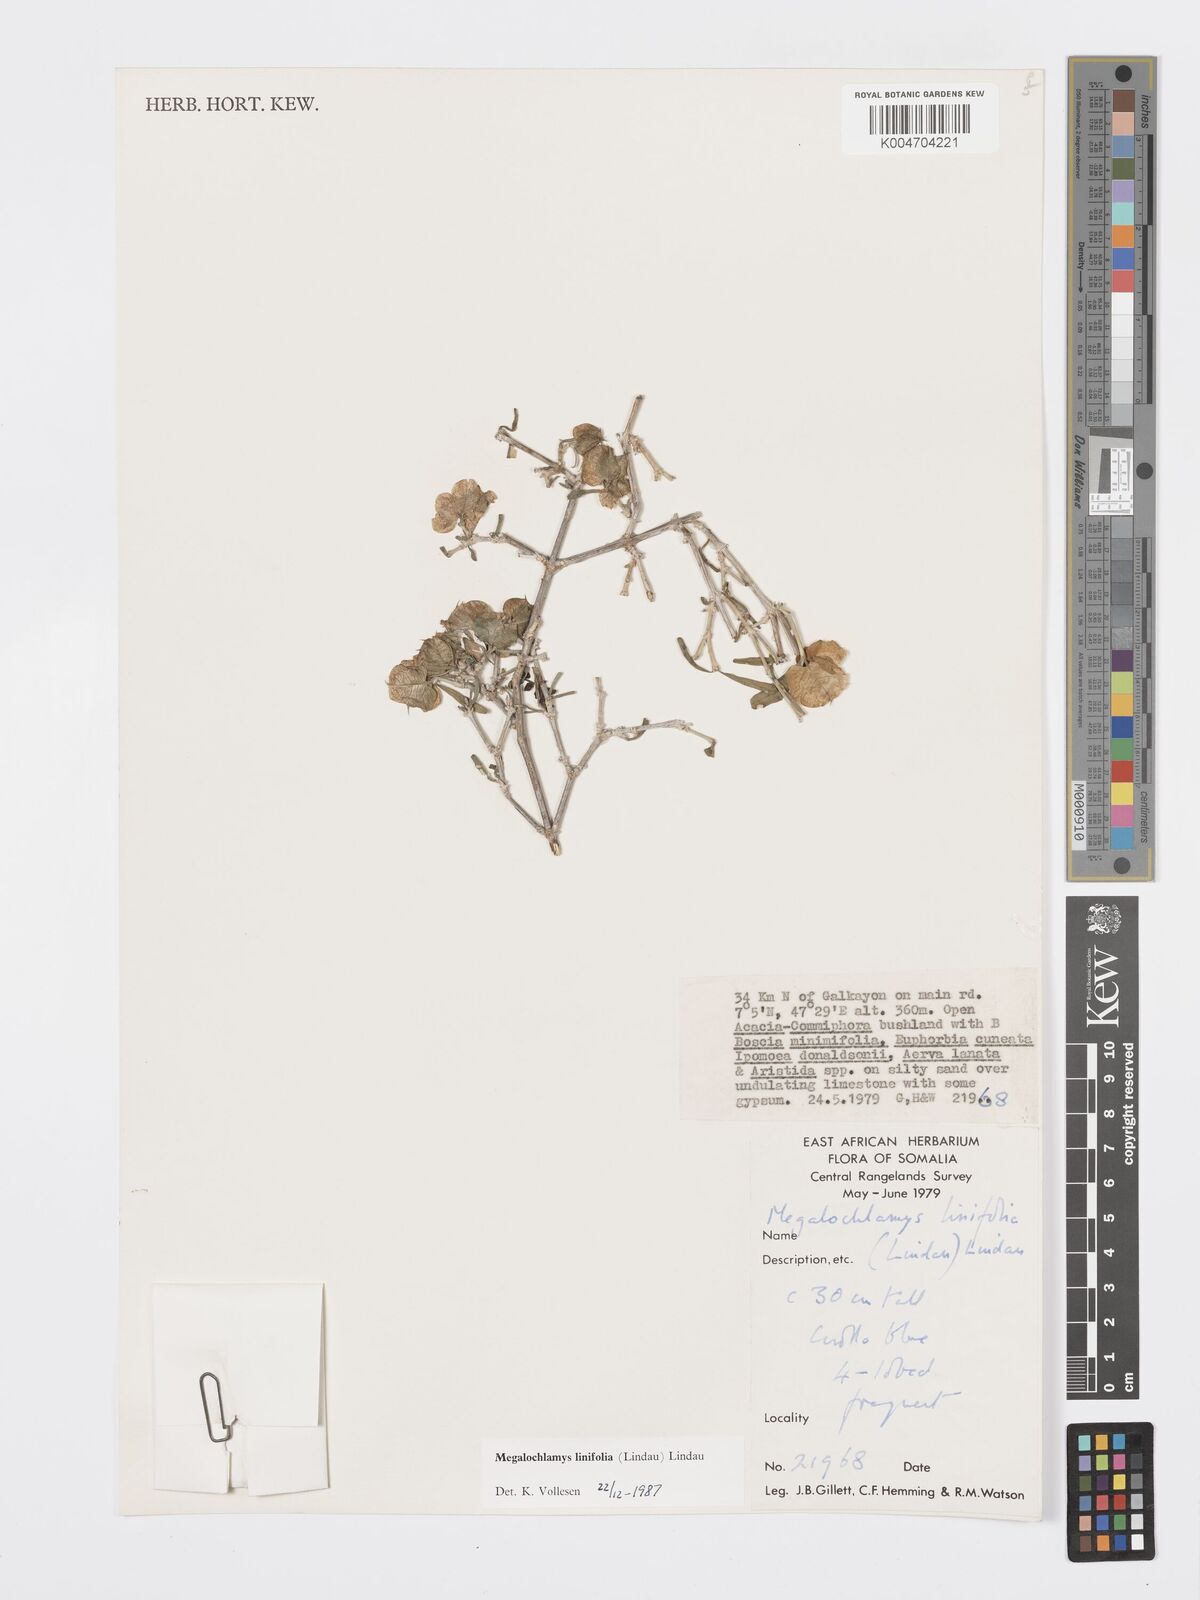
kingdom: Plantae
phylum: Tracheophyta
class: Magnoliopsida
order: Lamiales
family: Acanthaceae
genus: Megalochlamys
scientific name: Megalochlamys linifolia
